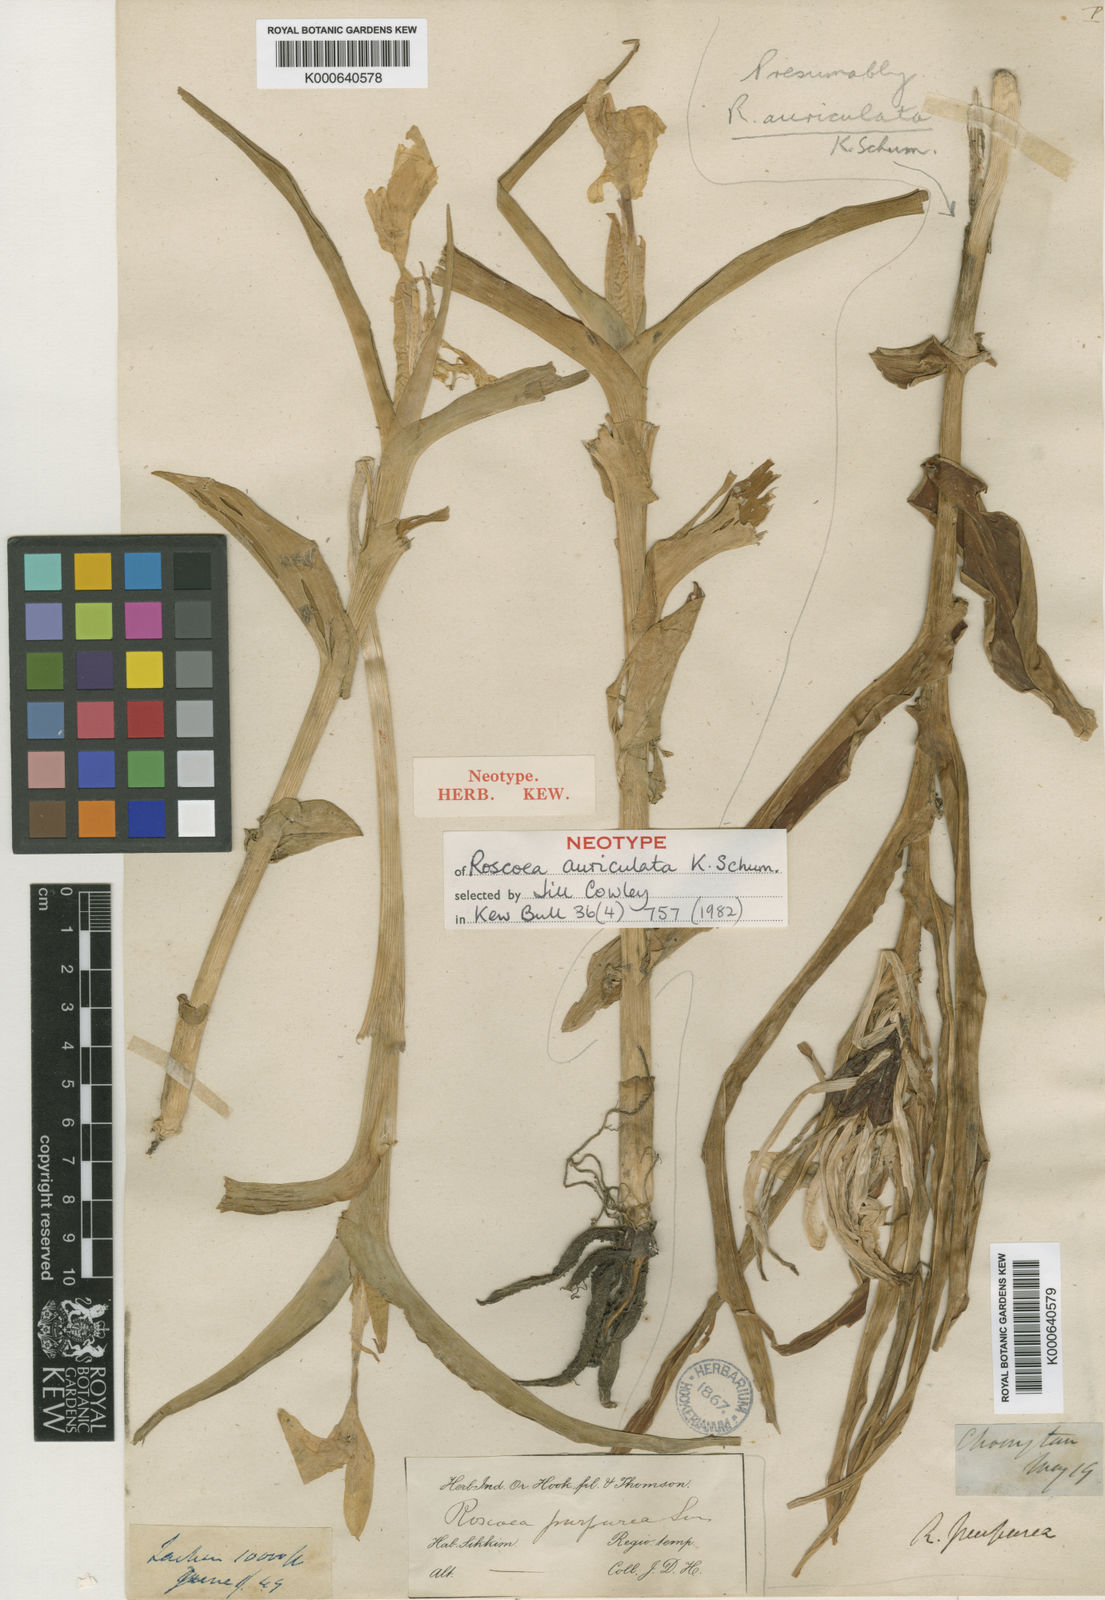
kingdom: Plantae
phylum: Tracheophyta
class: Liliopsida
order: Zingiberales
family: Zingiberaceae
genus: Roscoea
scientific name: Roscoea auriculata
